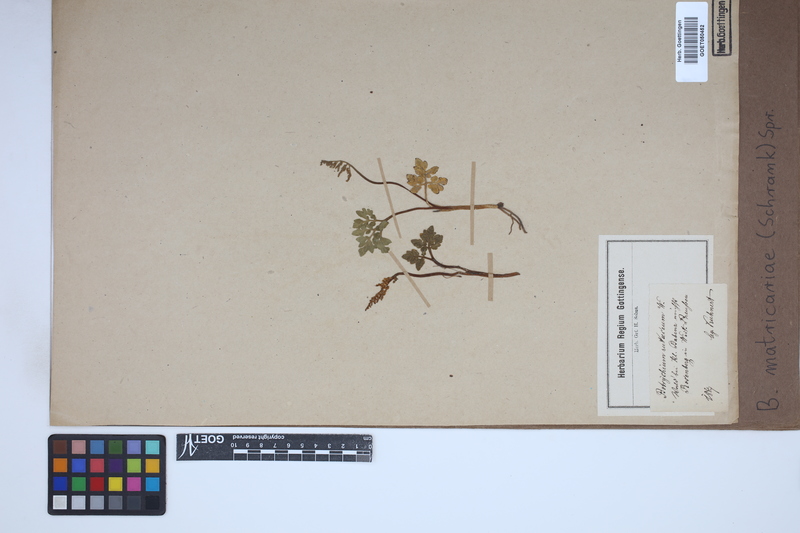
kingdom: Plantae
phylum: Tracheophyta
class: Polypodiopsida
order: Ophioglossales
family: Ophioglossaceae
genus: Sceptridium
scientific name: Sceptridium multifidum
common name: Leathery grape fern
